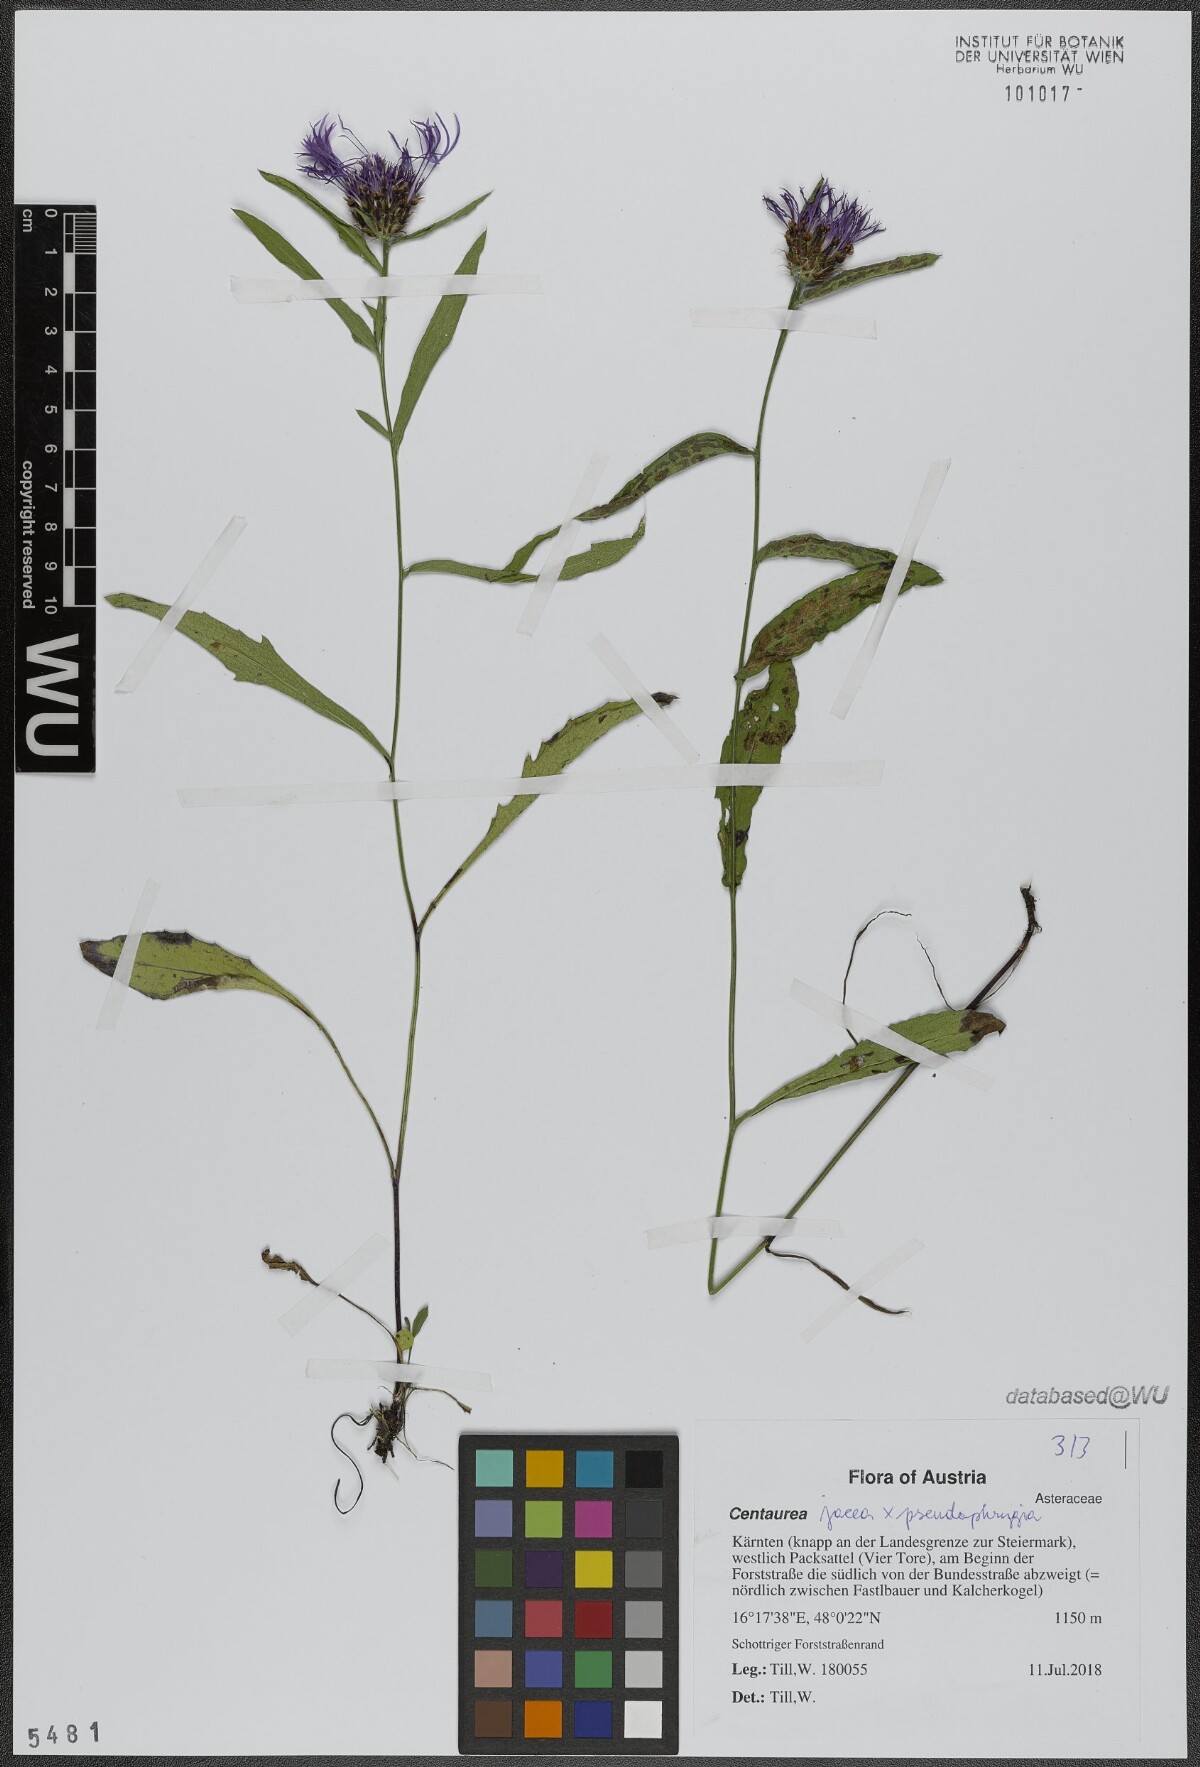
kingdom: Plantae
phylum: Tracheophyta
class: Magnoliopsida
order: Asterales
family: Asteraceae
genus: Centaurea
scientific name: Centaurea
